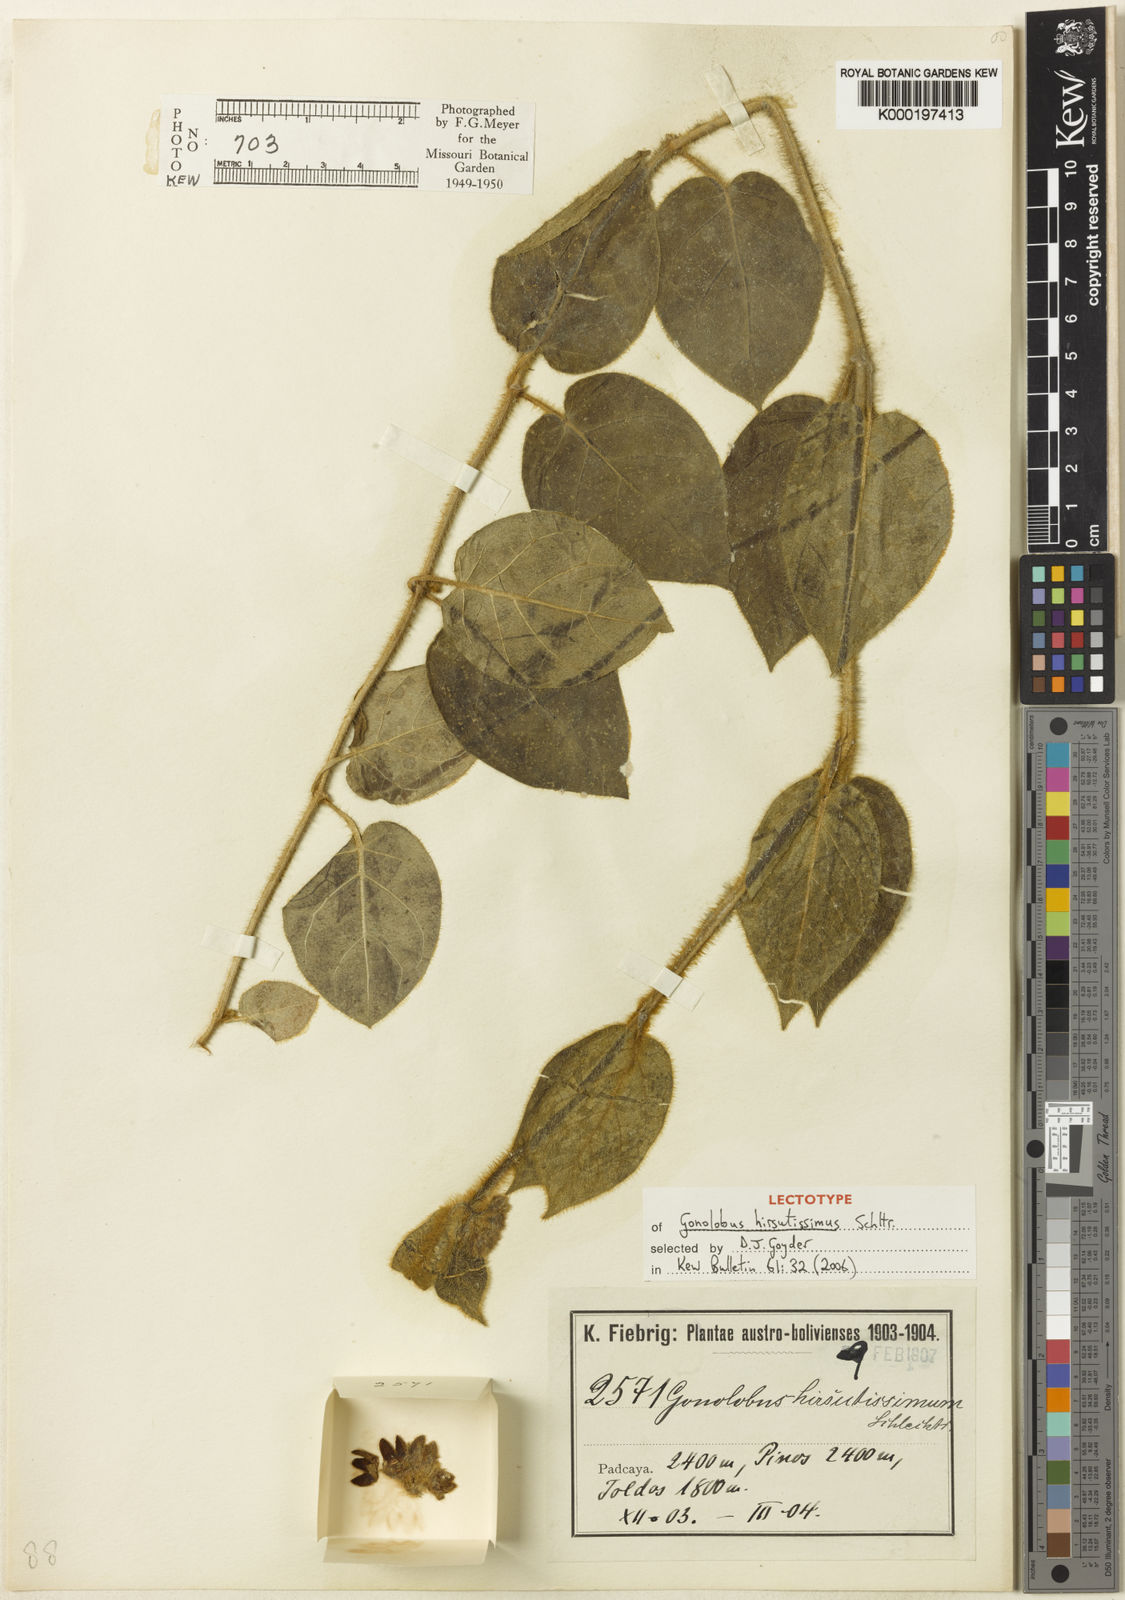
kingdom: Plantae
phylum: Tracheophyta
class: Magnoliopsida
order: Gentianales
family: Apocynaceae
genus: Cristobalia
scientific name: Cristobalia hirsutissima
